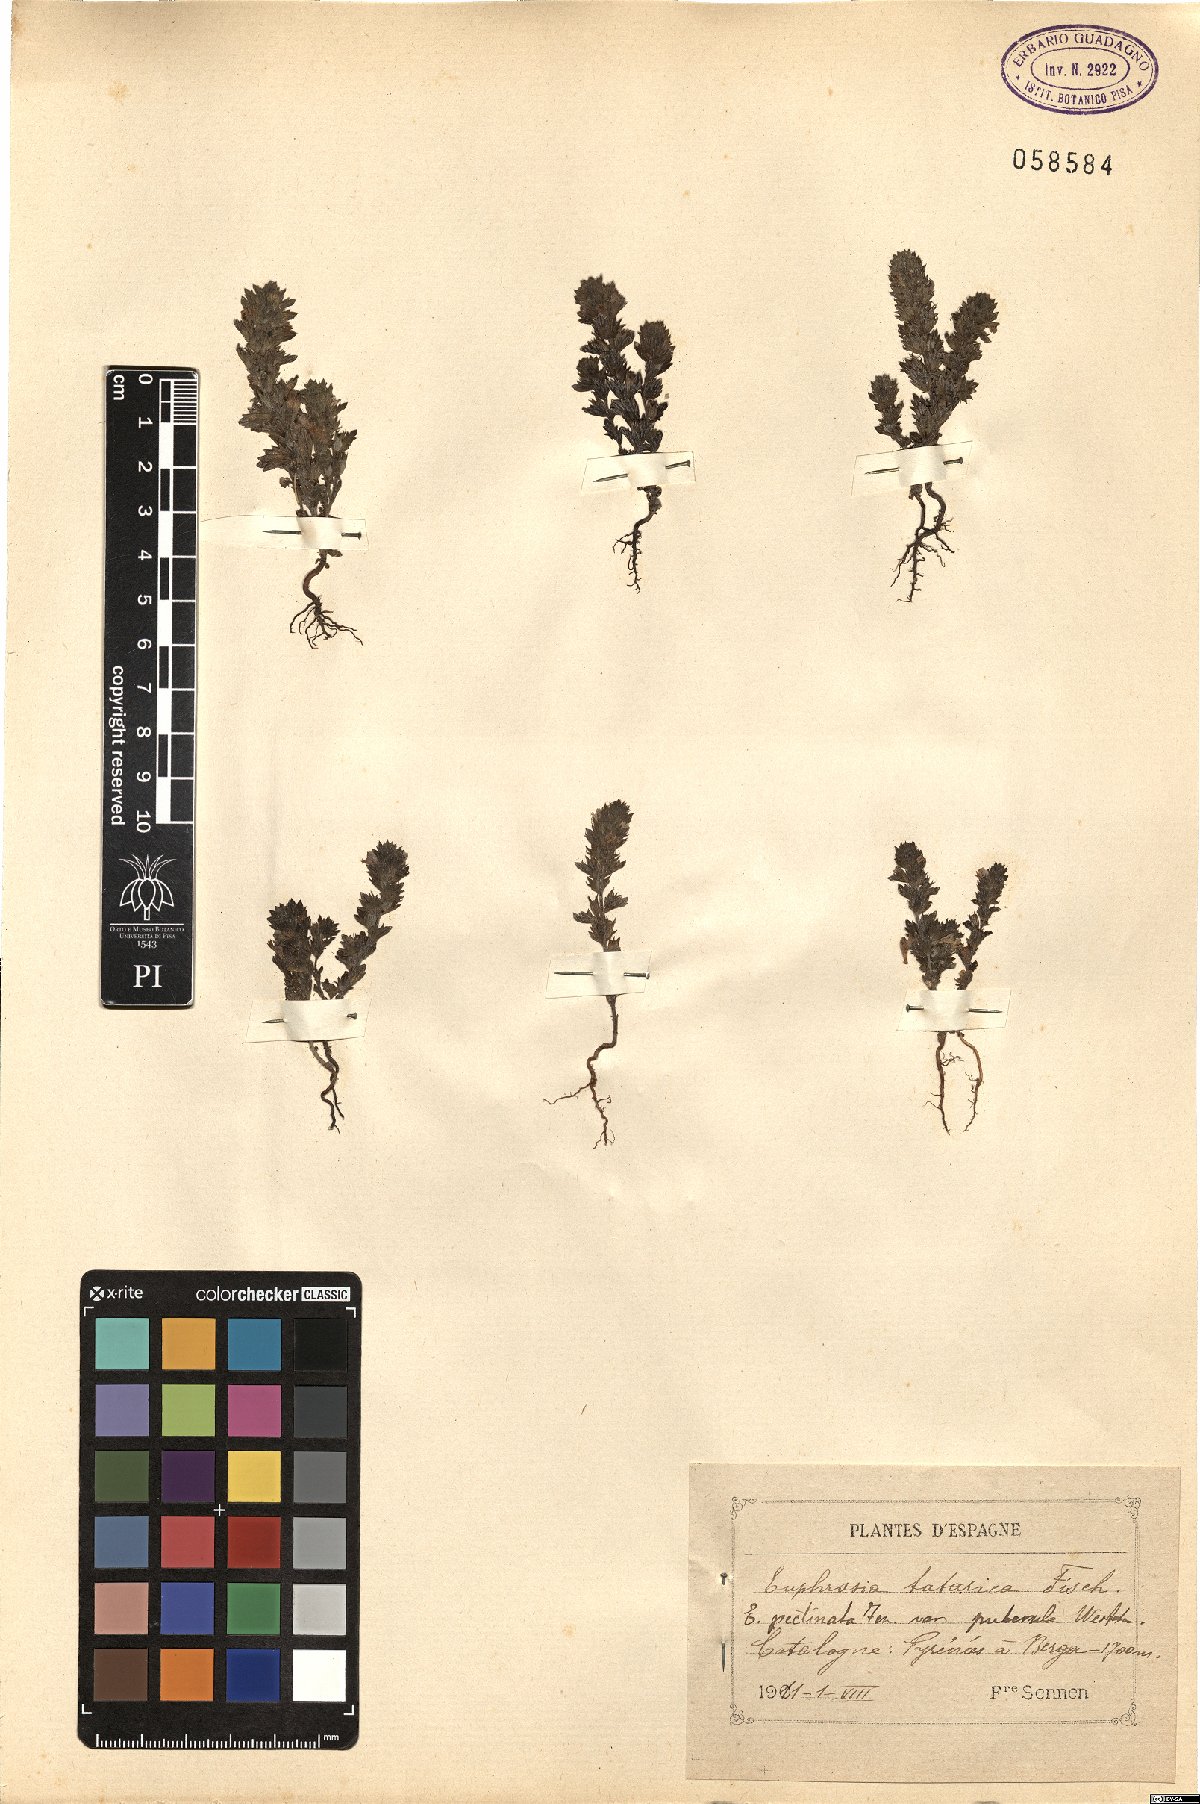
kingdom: Plantae
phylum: Tracheophyta
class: Magnoliopsida
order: Lamiales
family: Orobanchaceae
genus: Euphrasia
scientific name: Euphrasia pectinata
